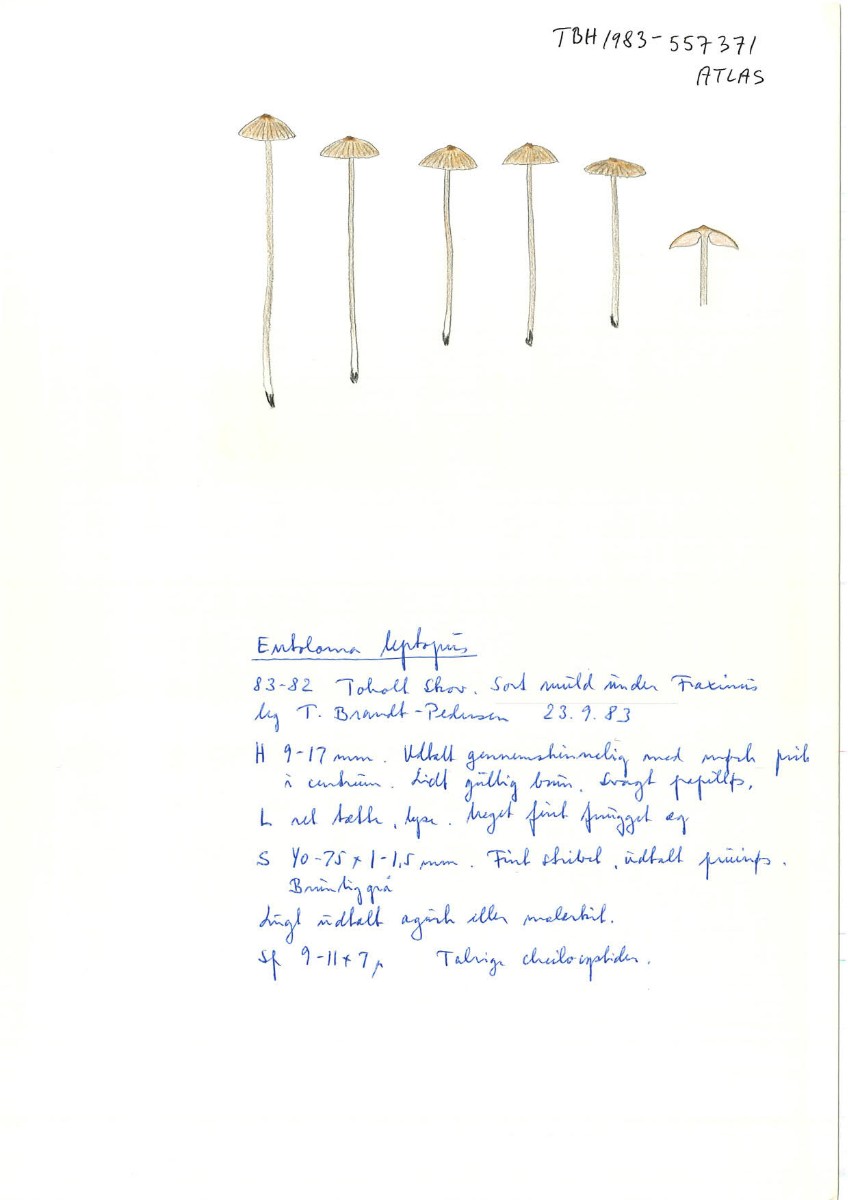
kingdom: Fungi
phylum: Basidiomycota
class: Agaricomycetes
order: Agaricales
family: Entolomataceae
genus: Entoloma
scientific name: Entoloma hebes
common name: krat-rødblad
